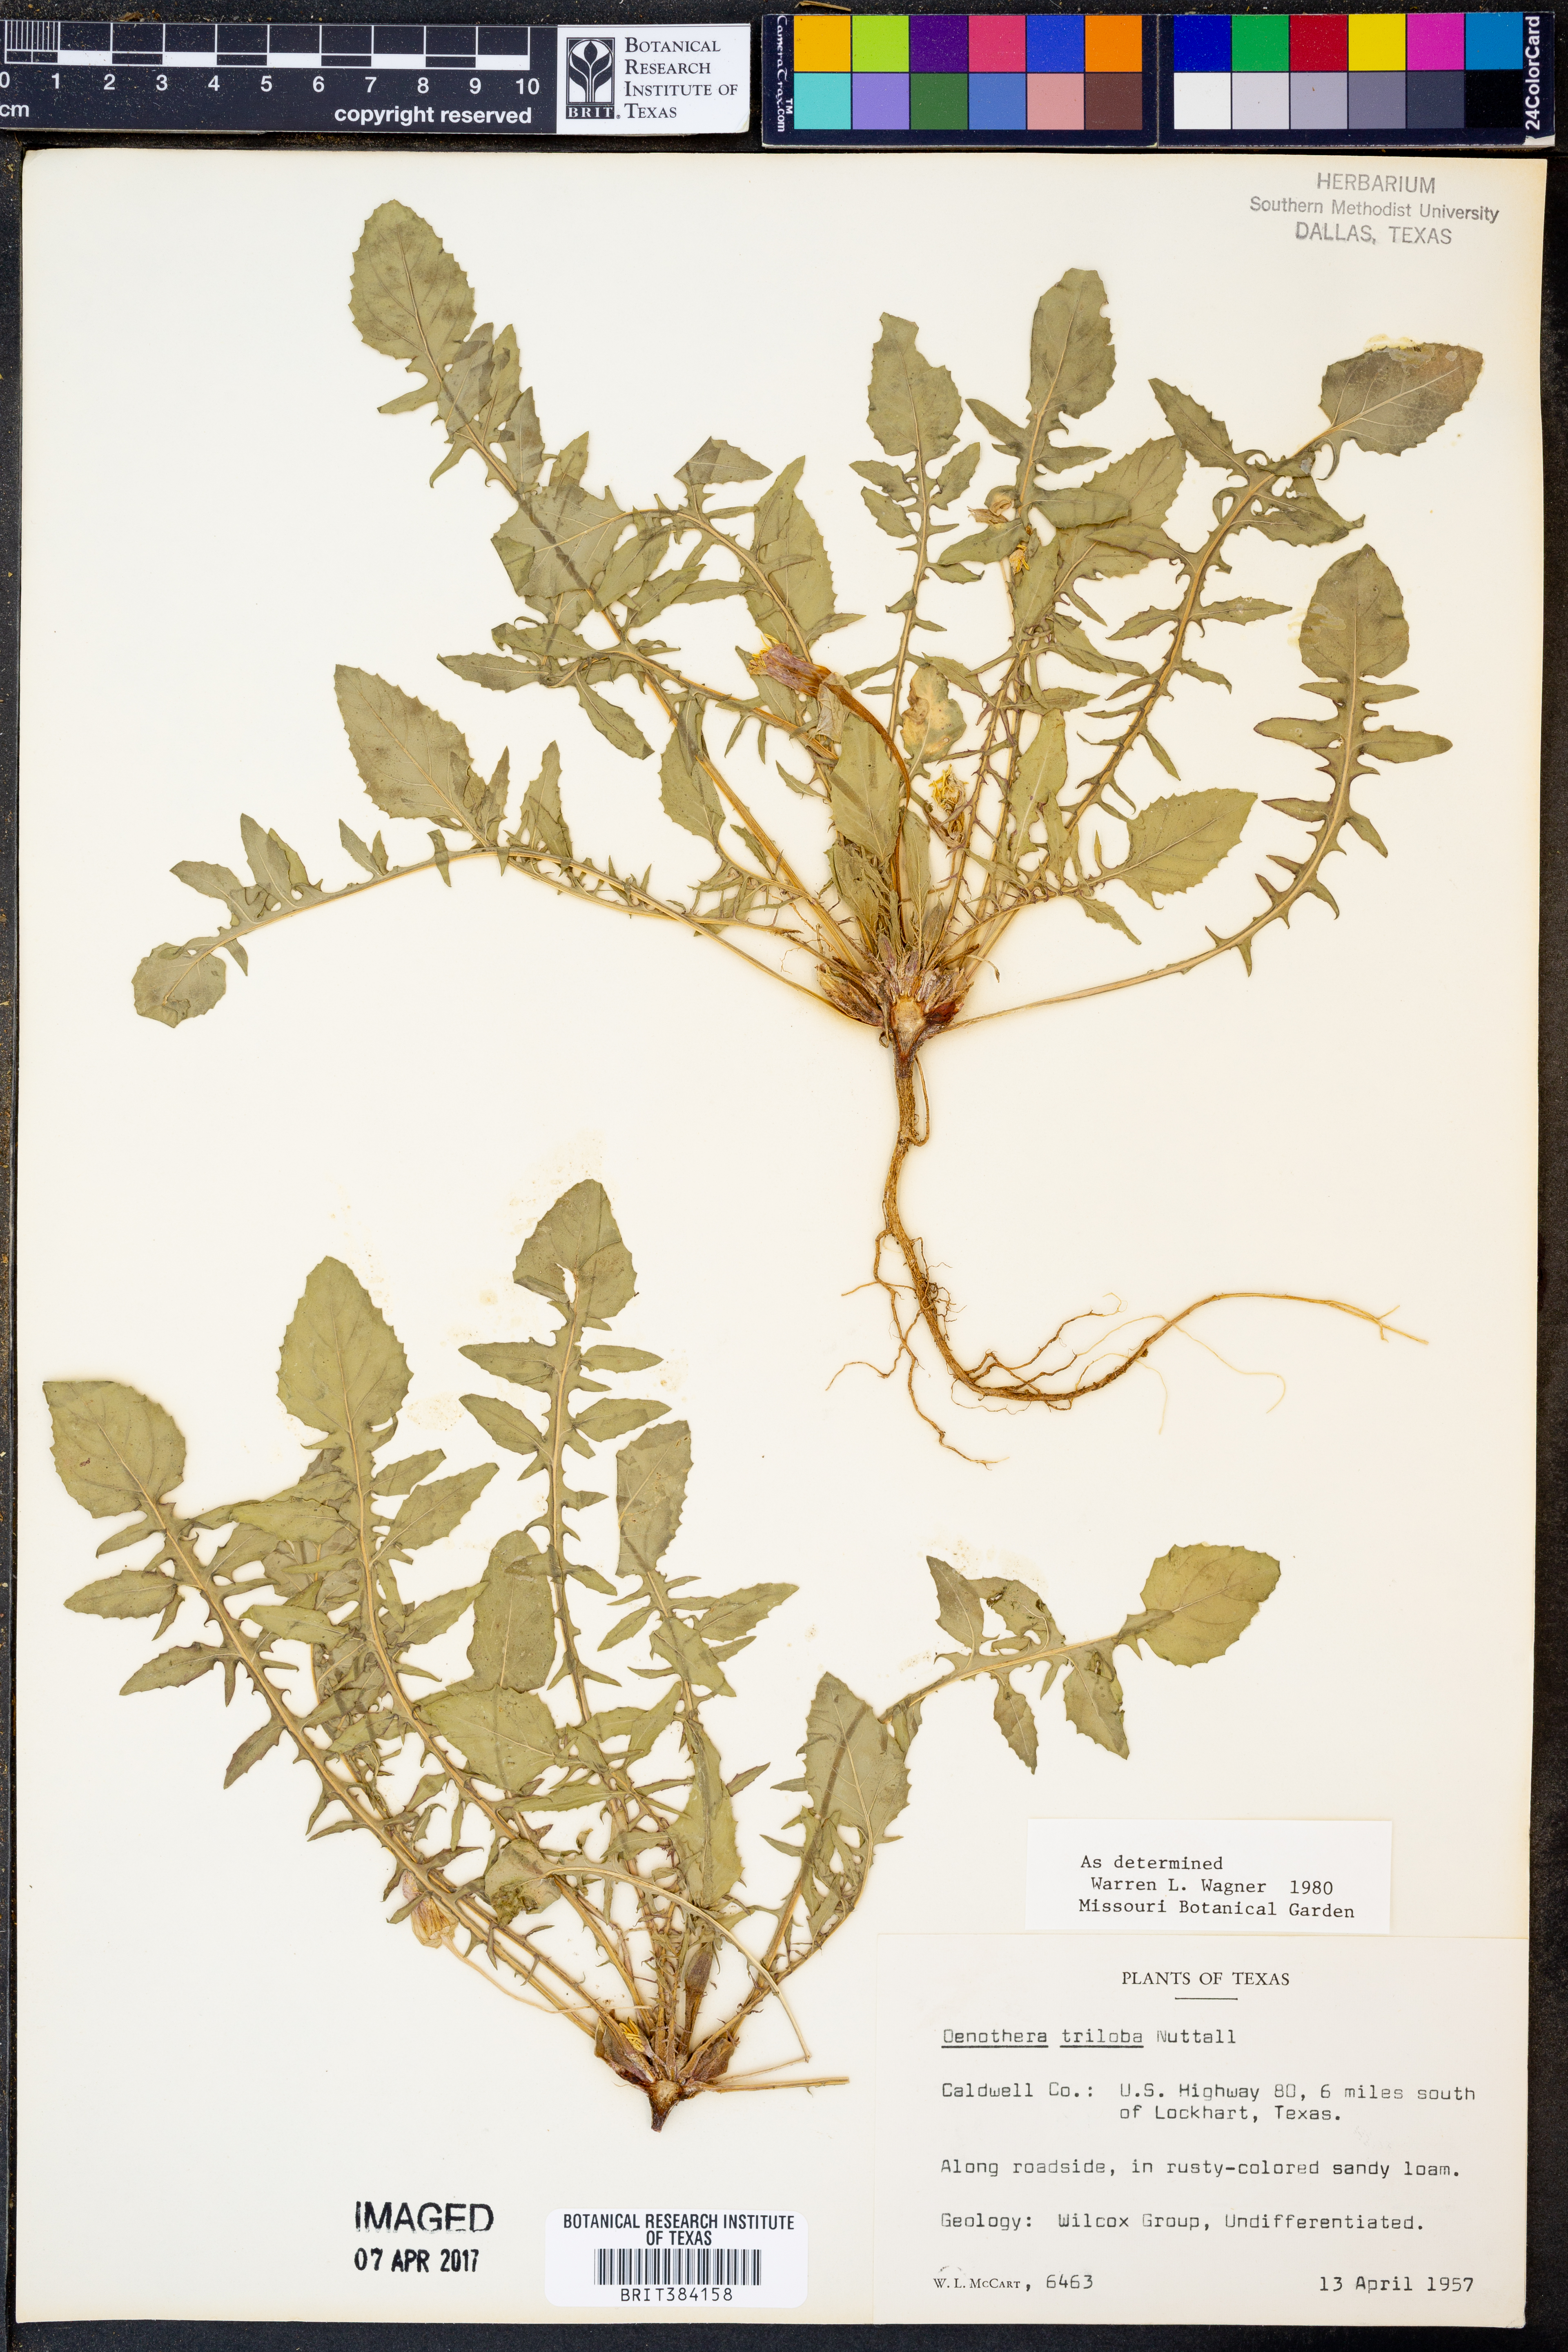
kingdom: Plantae
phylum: Tracheophyta
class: Magnoliopsida
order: Myrtales
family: Onagraceae
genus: Oenothera
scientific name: Oenothera triloba
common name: Sessile evening-primrose
